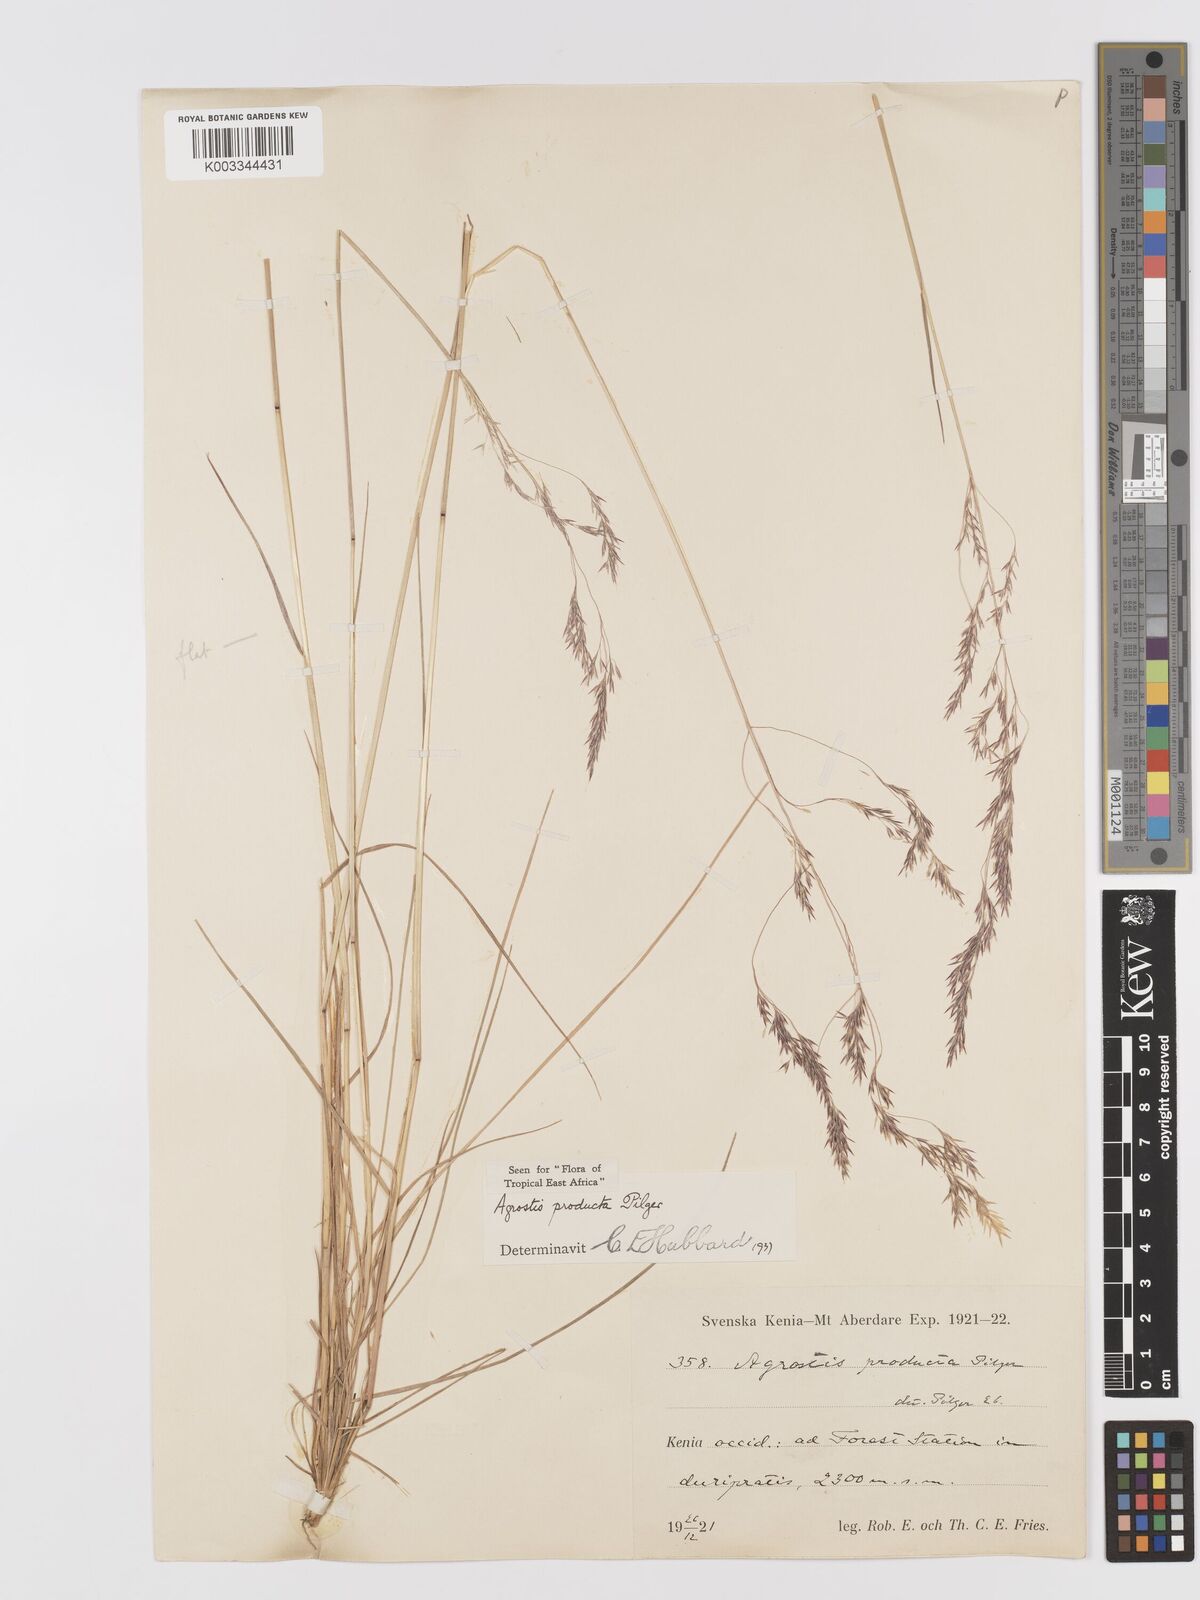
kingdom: Plantae
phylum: Tracheophyta
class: Liliopsida
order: Poales
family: Poaceae
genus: Agrostis
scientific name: Agrostis producta
